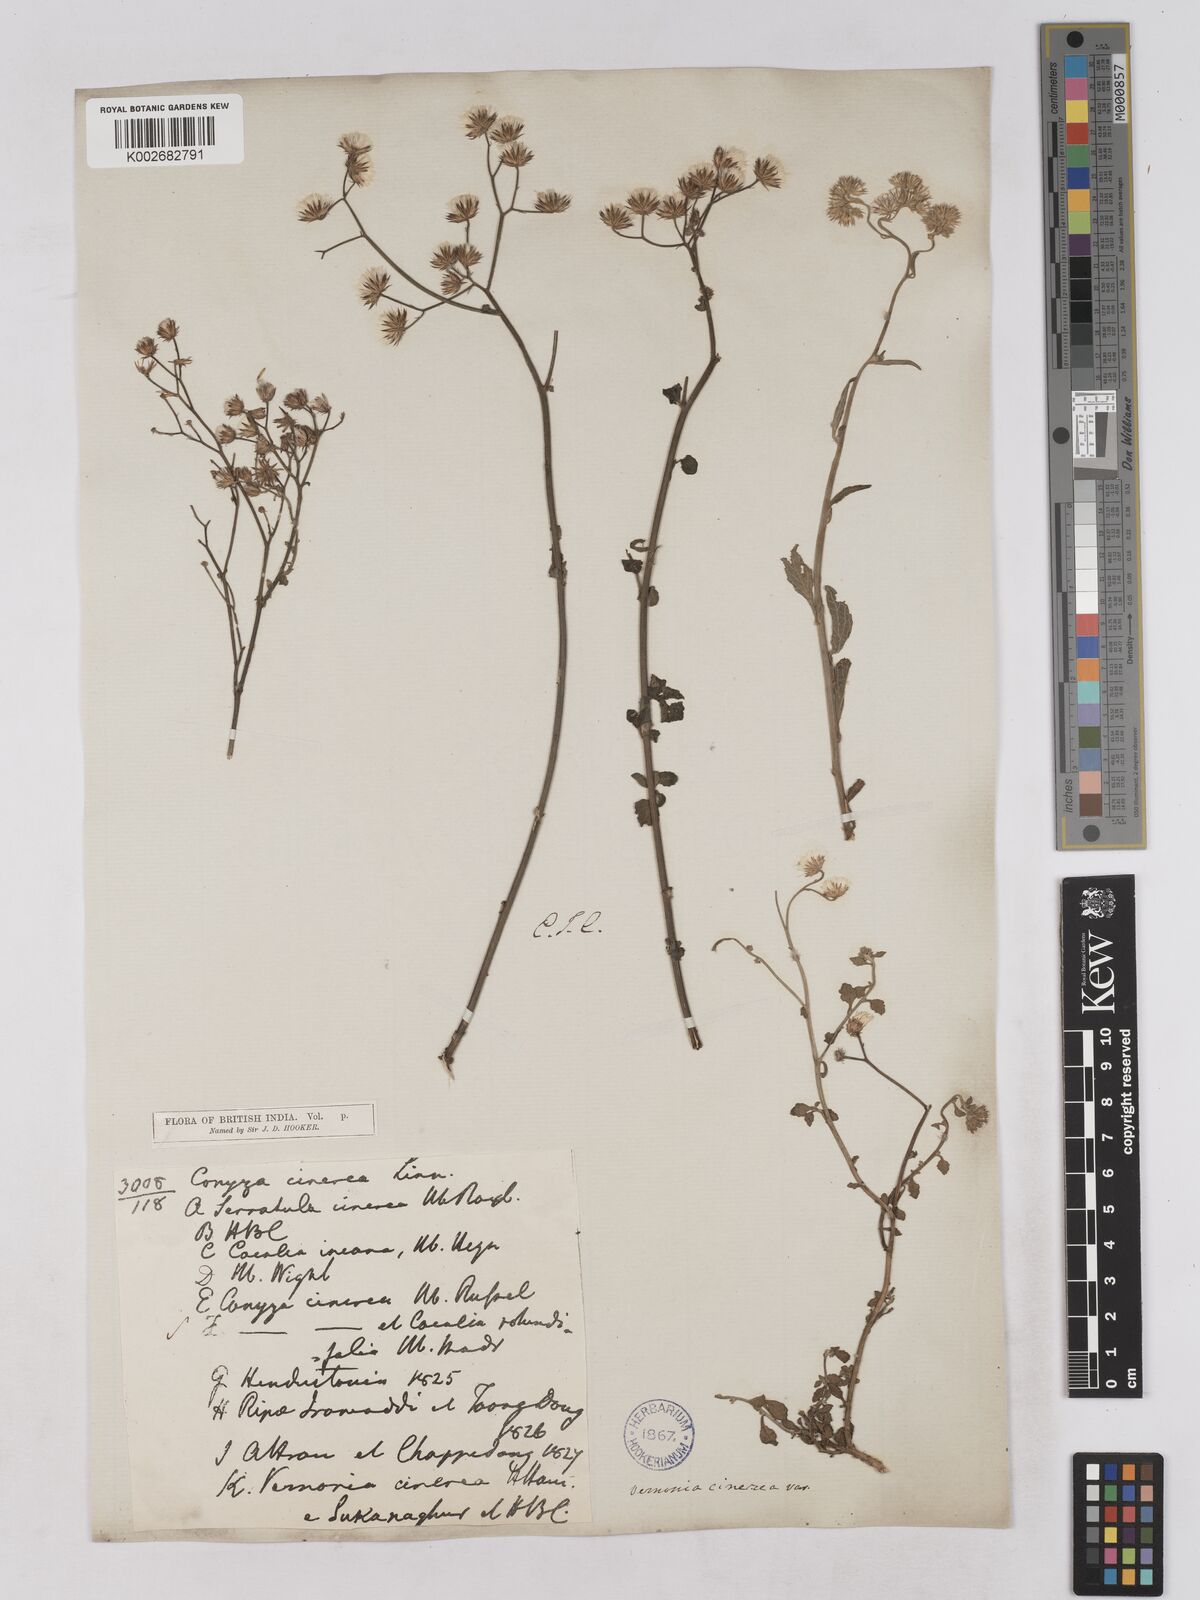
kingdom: Plantae
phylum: Tracheophyta
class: Magnoliopsida
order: Asterales
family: Asteraceae
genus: Cyanthillium
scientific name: Cyanthillium cinereum
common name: Little ironweed
